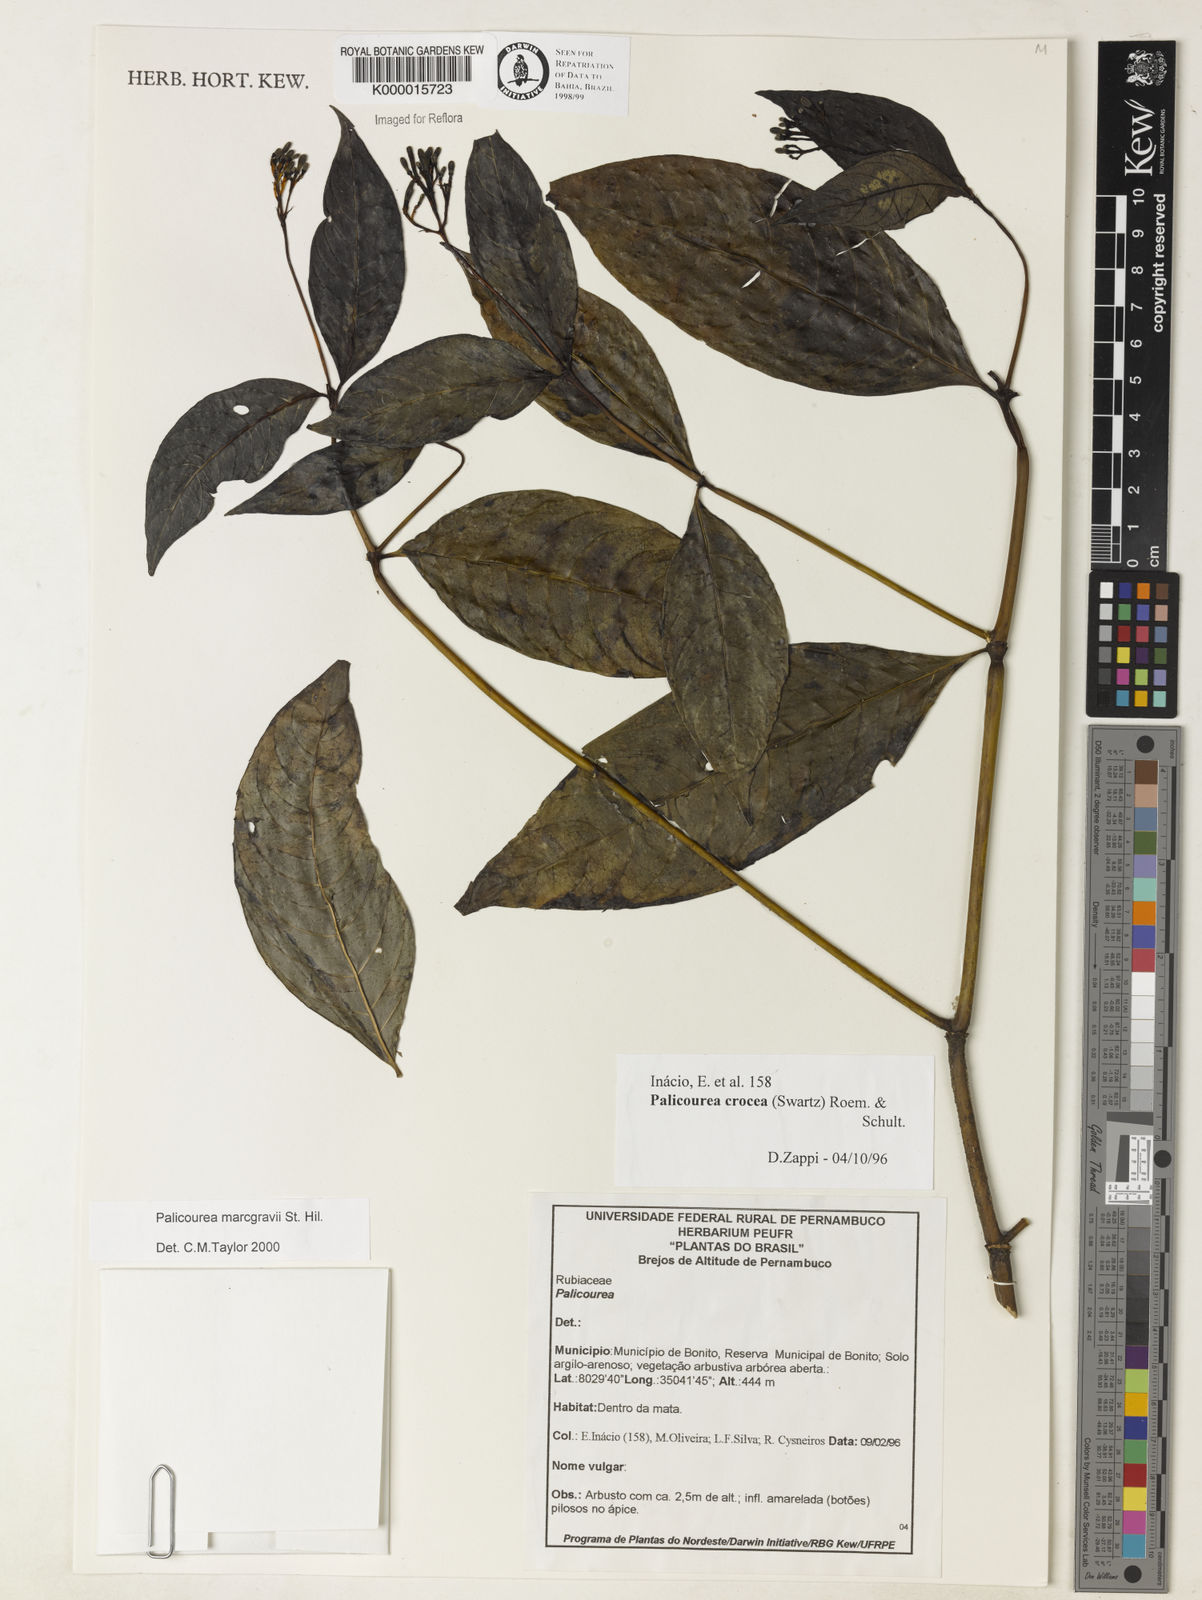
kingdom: Plantae
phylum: Tracheophyta
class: Magnoliopsida
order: Gentianales
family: Rubiaceae
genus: Palicourea
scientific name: Palicourea marcgravii
